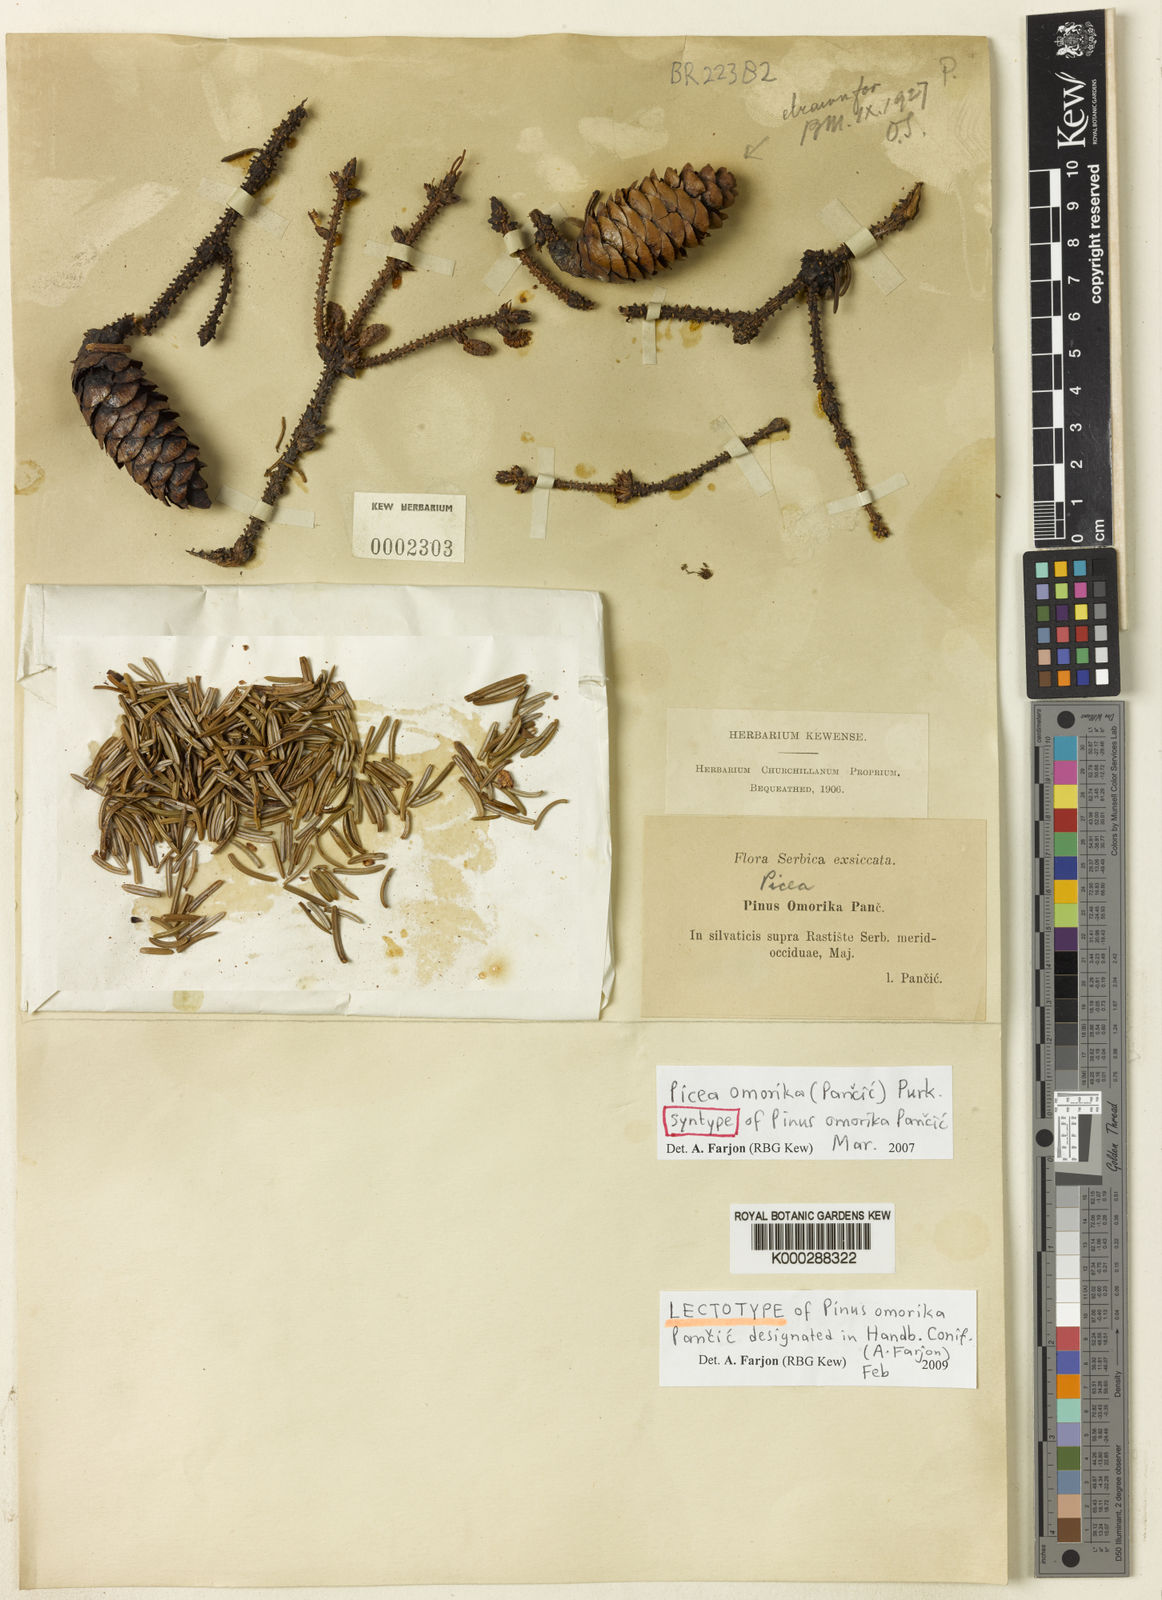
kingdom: Plantae
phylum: Tracheophyta
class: Pinopsida
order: Pinales
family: Pinaceae
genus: Picea
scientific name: Picea omorika
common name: Serbian spruce
